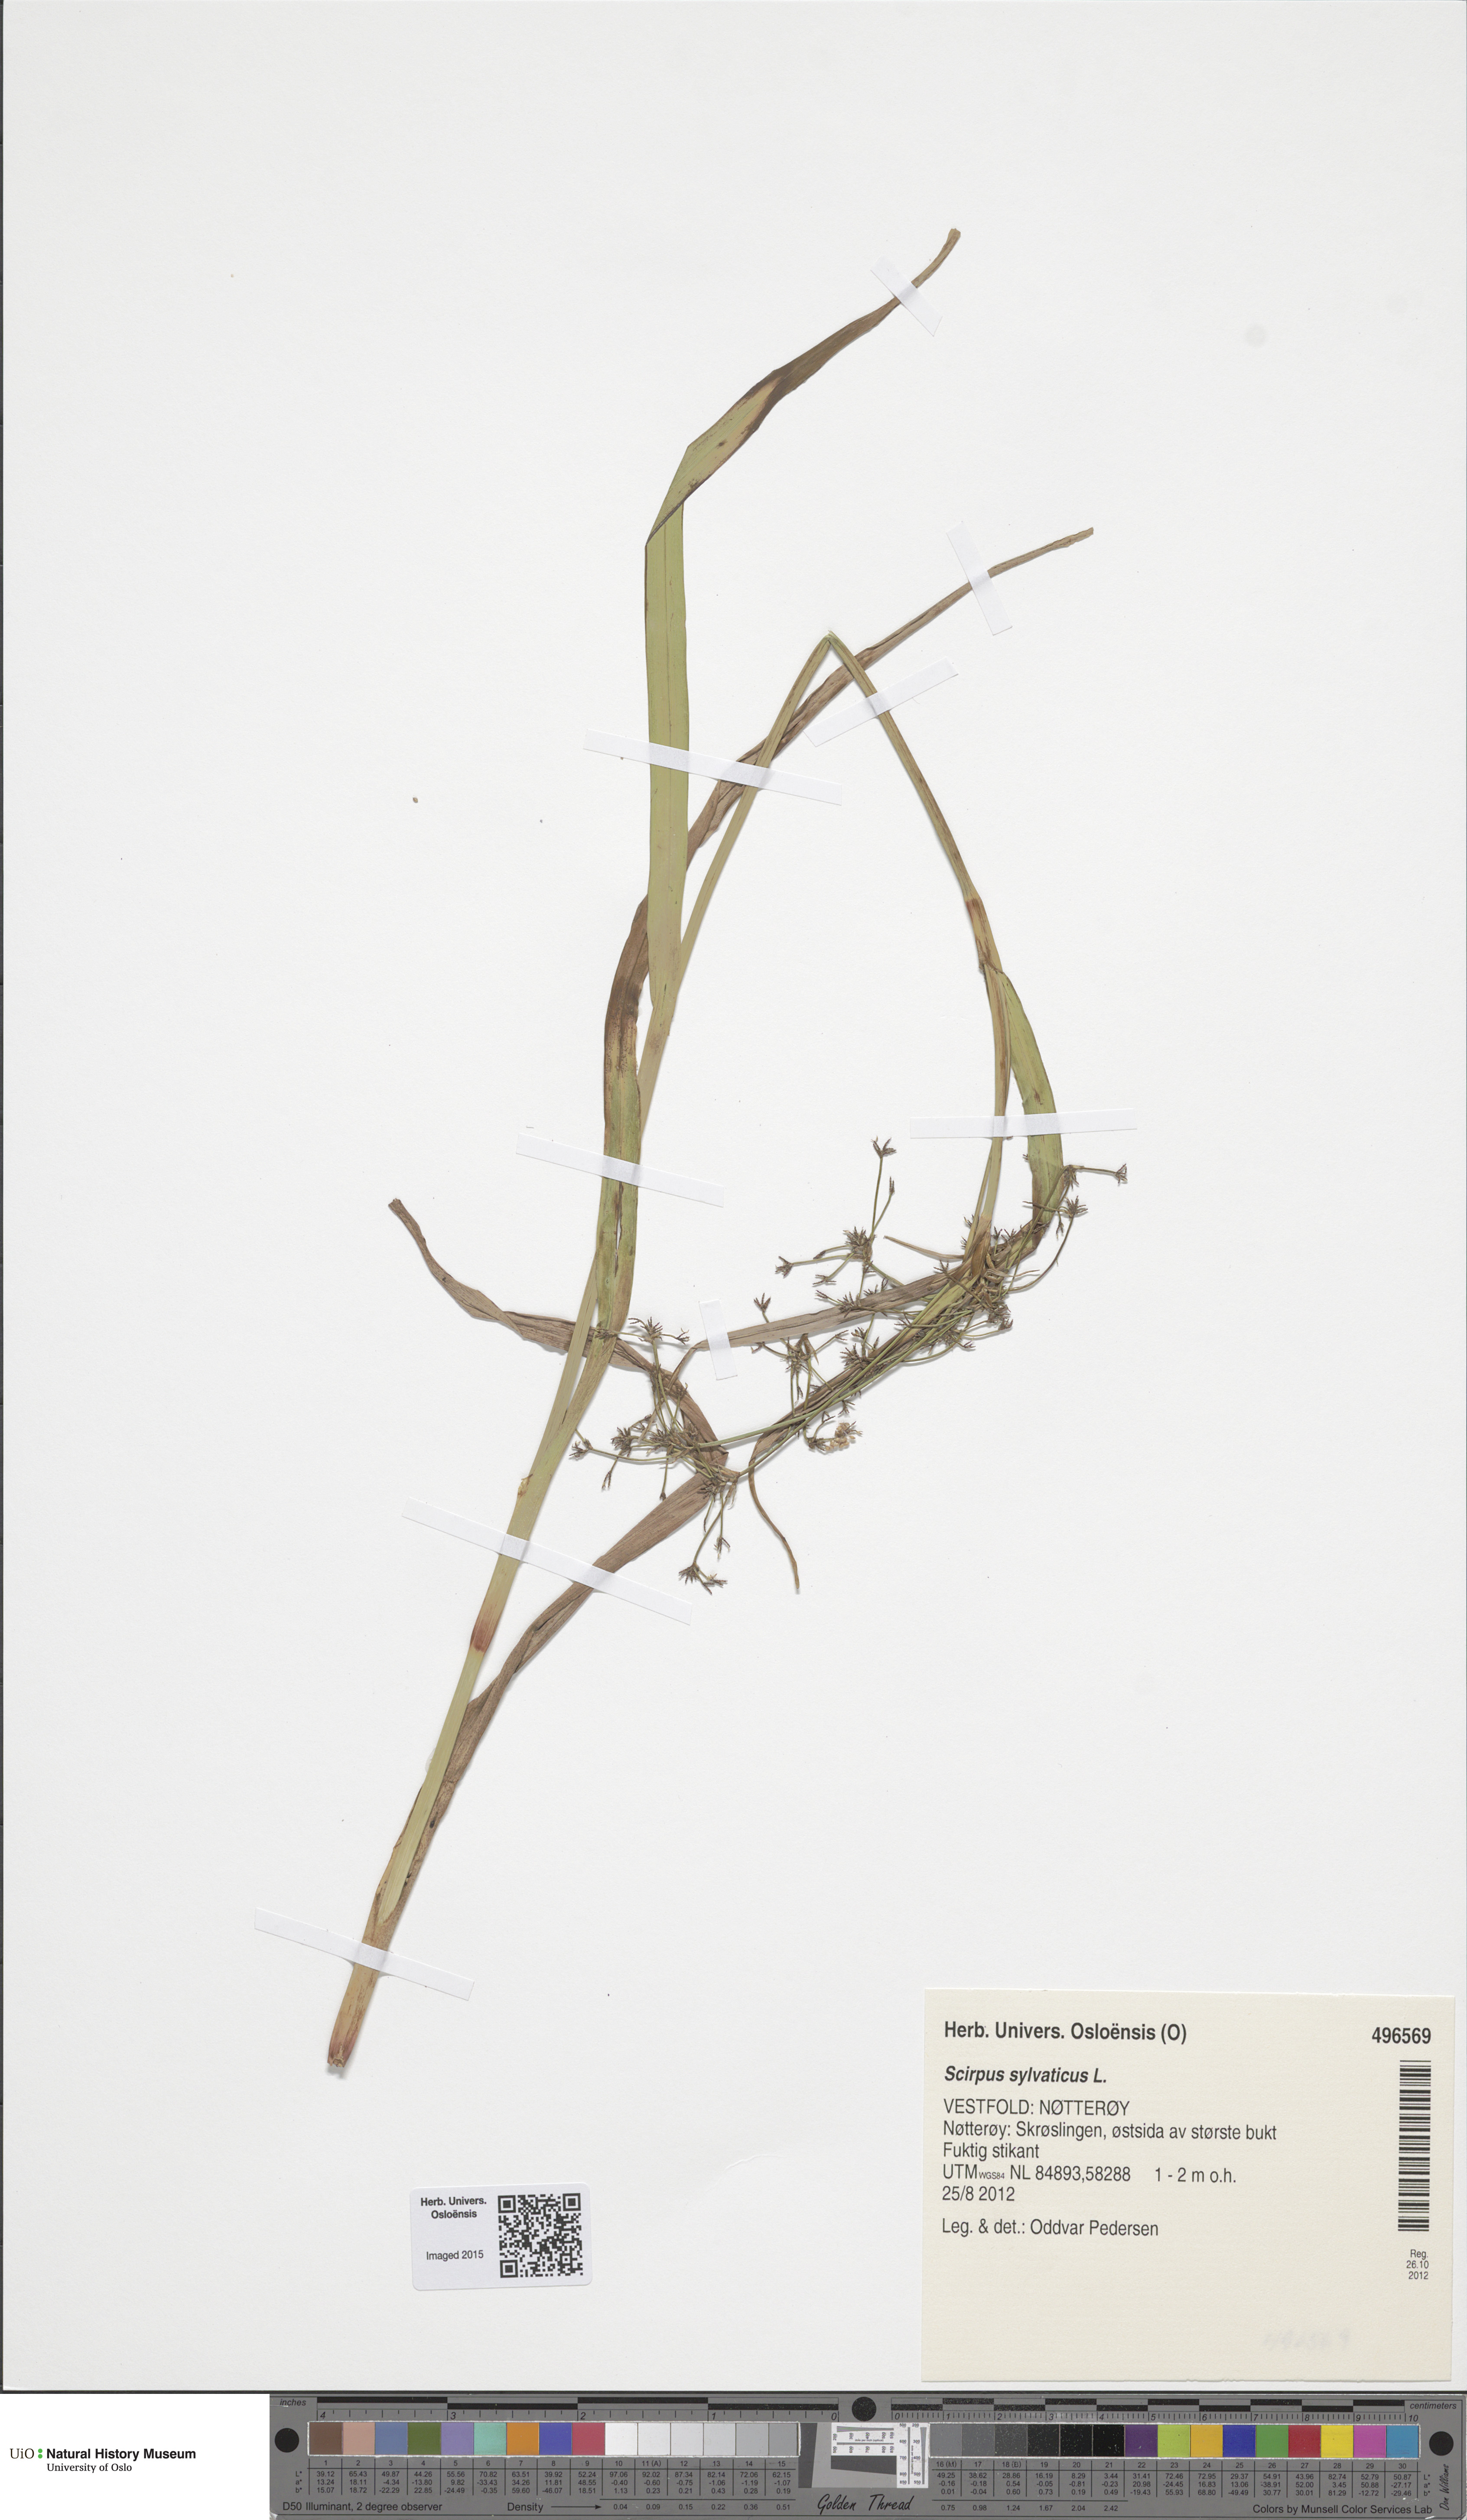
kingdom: Plantae
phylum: Tracheophyta
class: Liliopsida
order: Poales
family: Cyperaceae
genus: Scirpus
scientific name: Scirpus sylvaticus
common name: Wood club-rush
